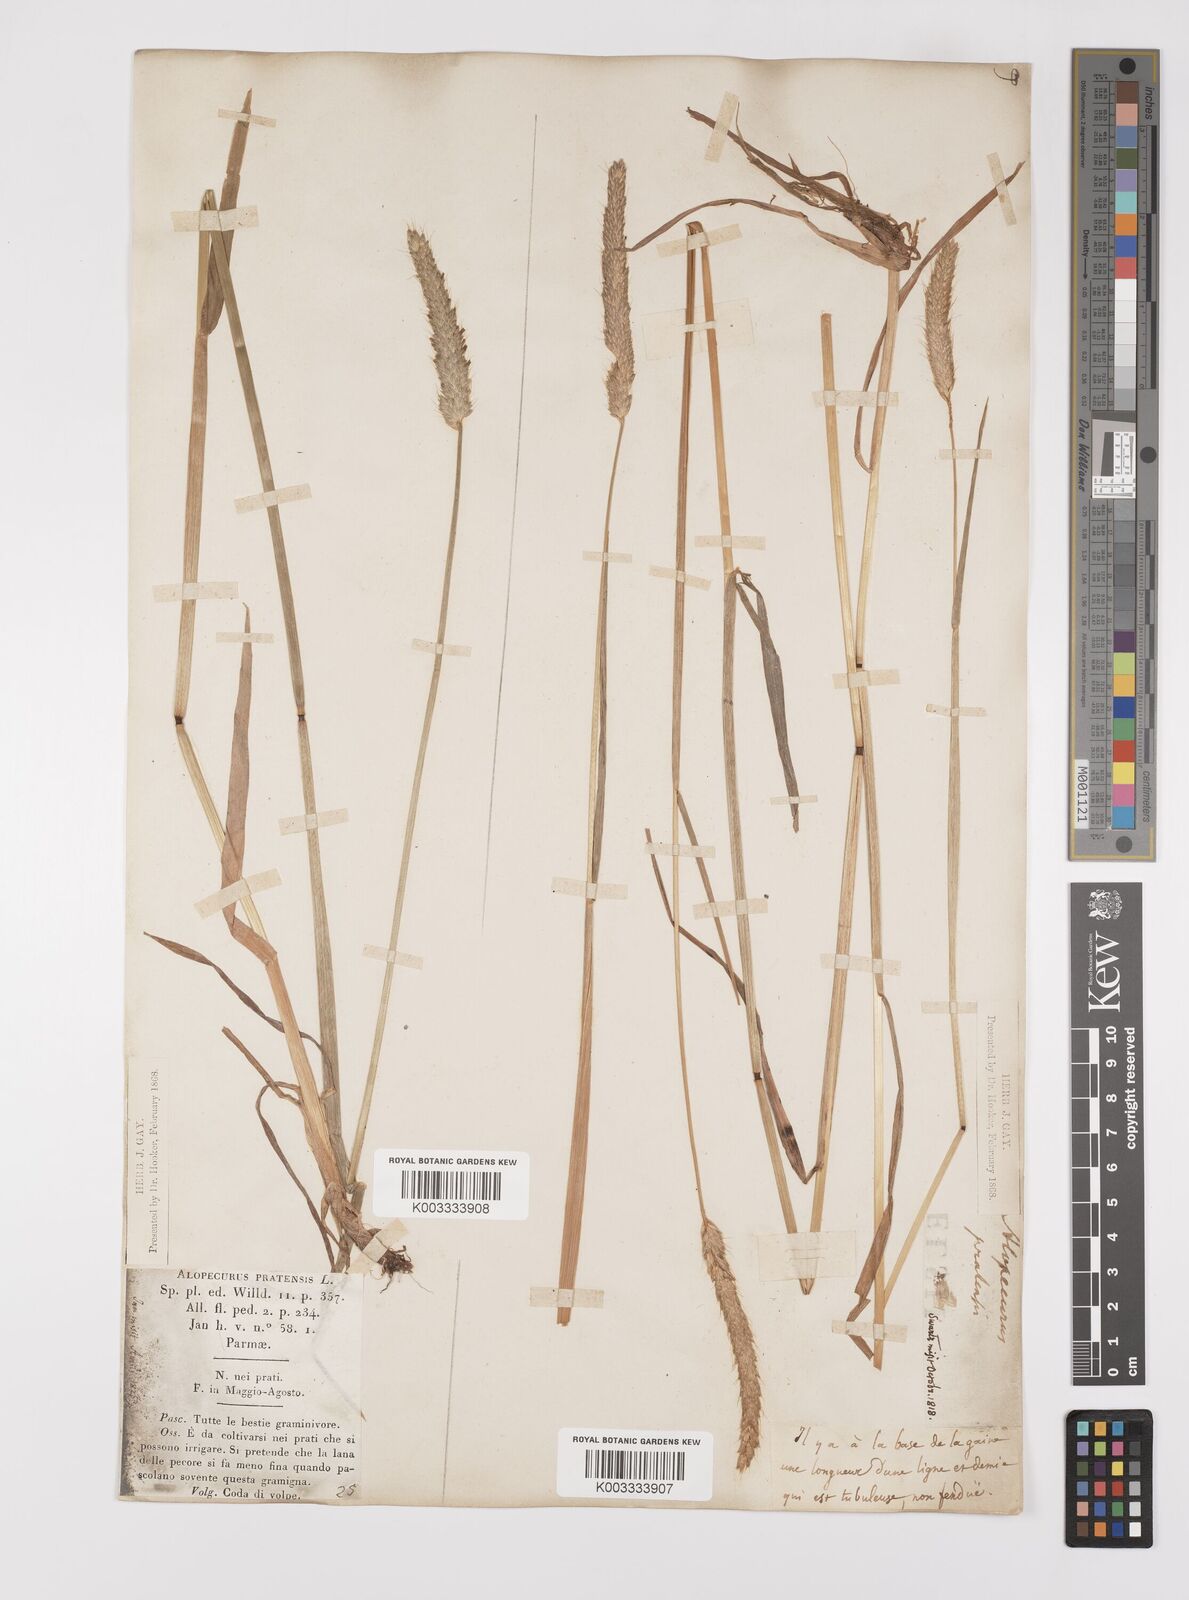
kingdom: Plantae
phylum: Tracheophyta
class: Liliopsida
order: Poales
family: Poaceae
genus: Alopecurus
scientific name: Alopecurus pratensis
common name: Meadow foxtail
